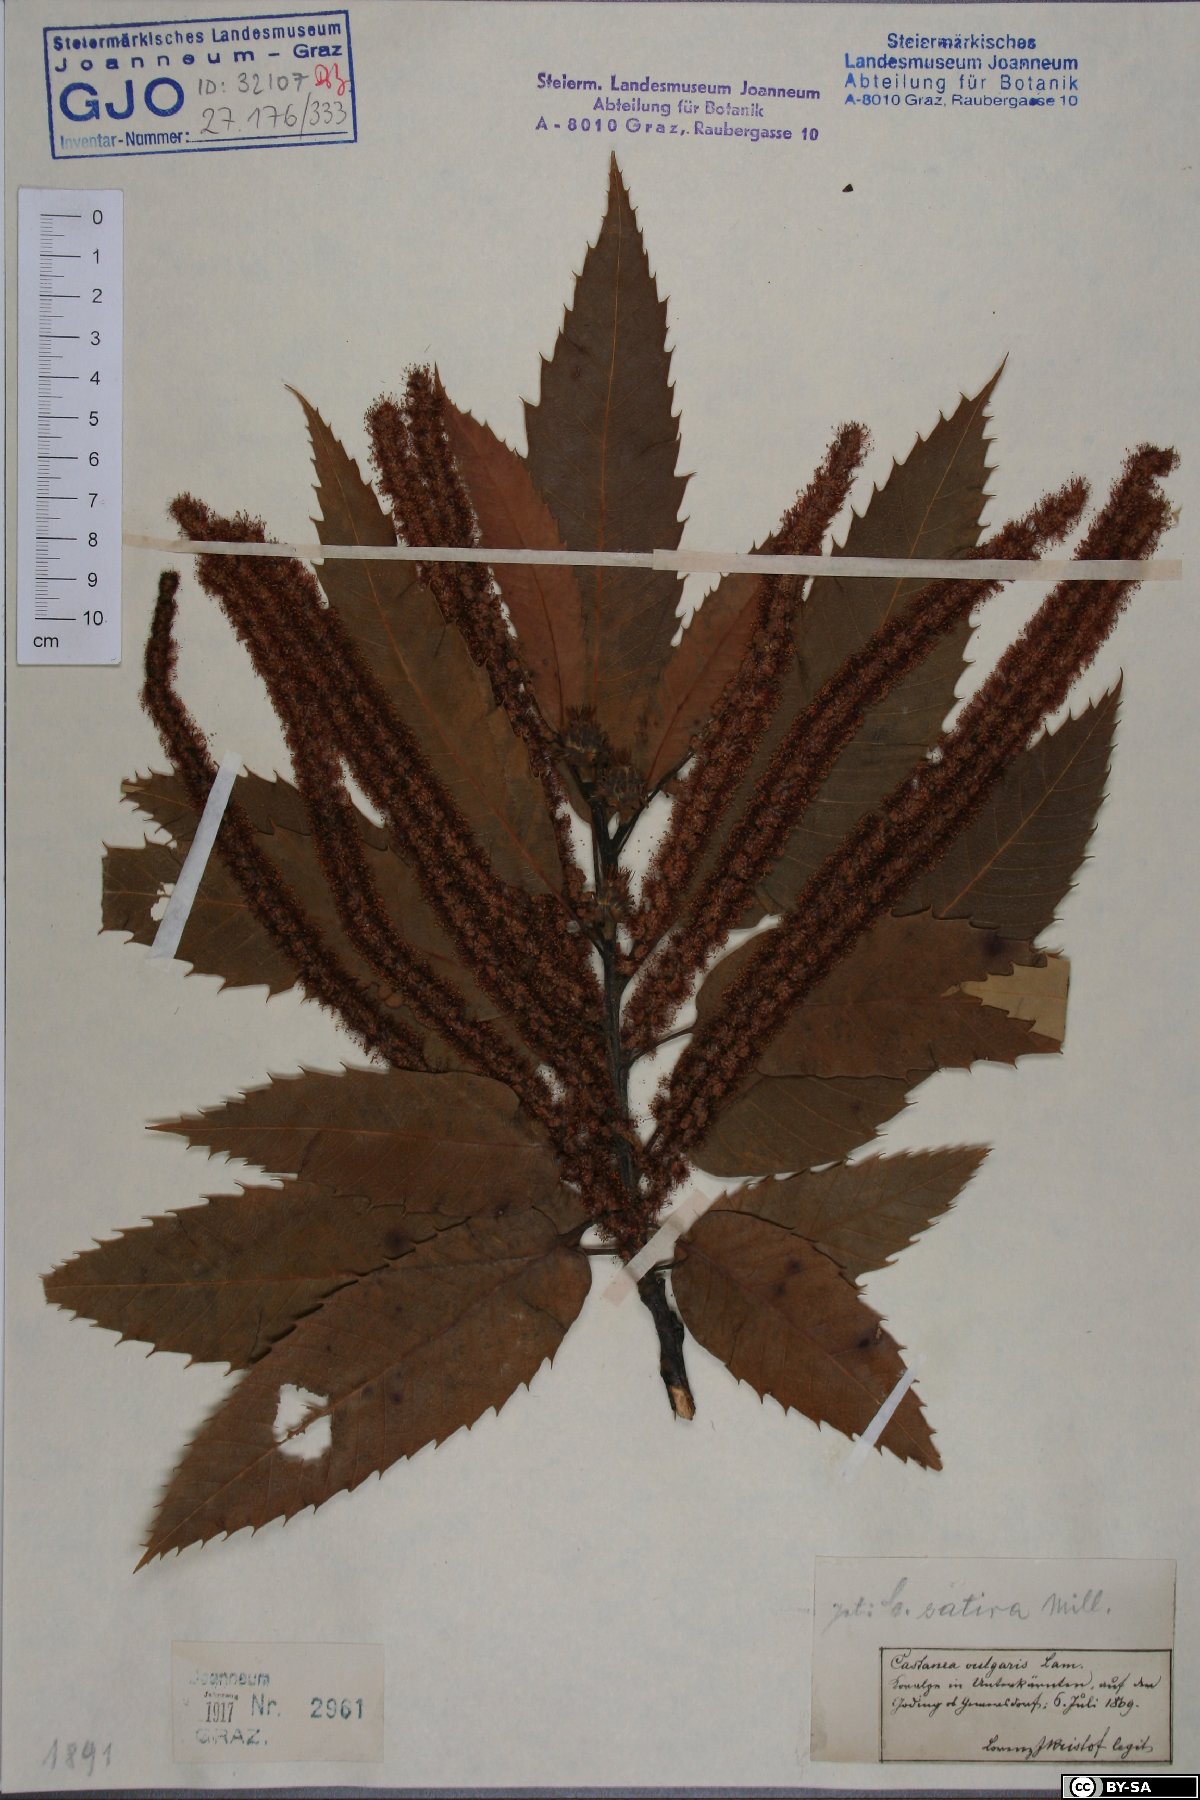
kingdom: Plantae
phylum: Tracheophyta
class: Magnoliopsida
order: Fagales
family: Fagaceae
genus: Castanea
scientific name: Castanea sativa
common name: Sweet chestnut
